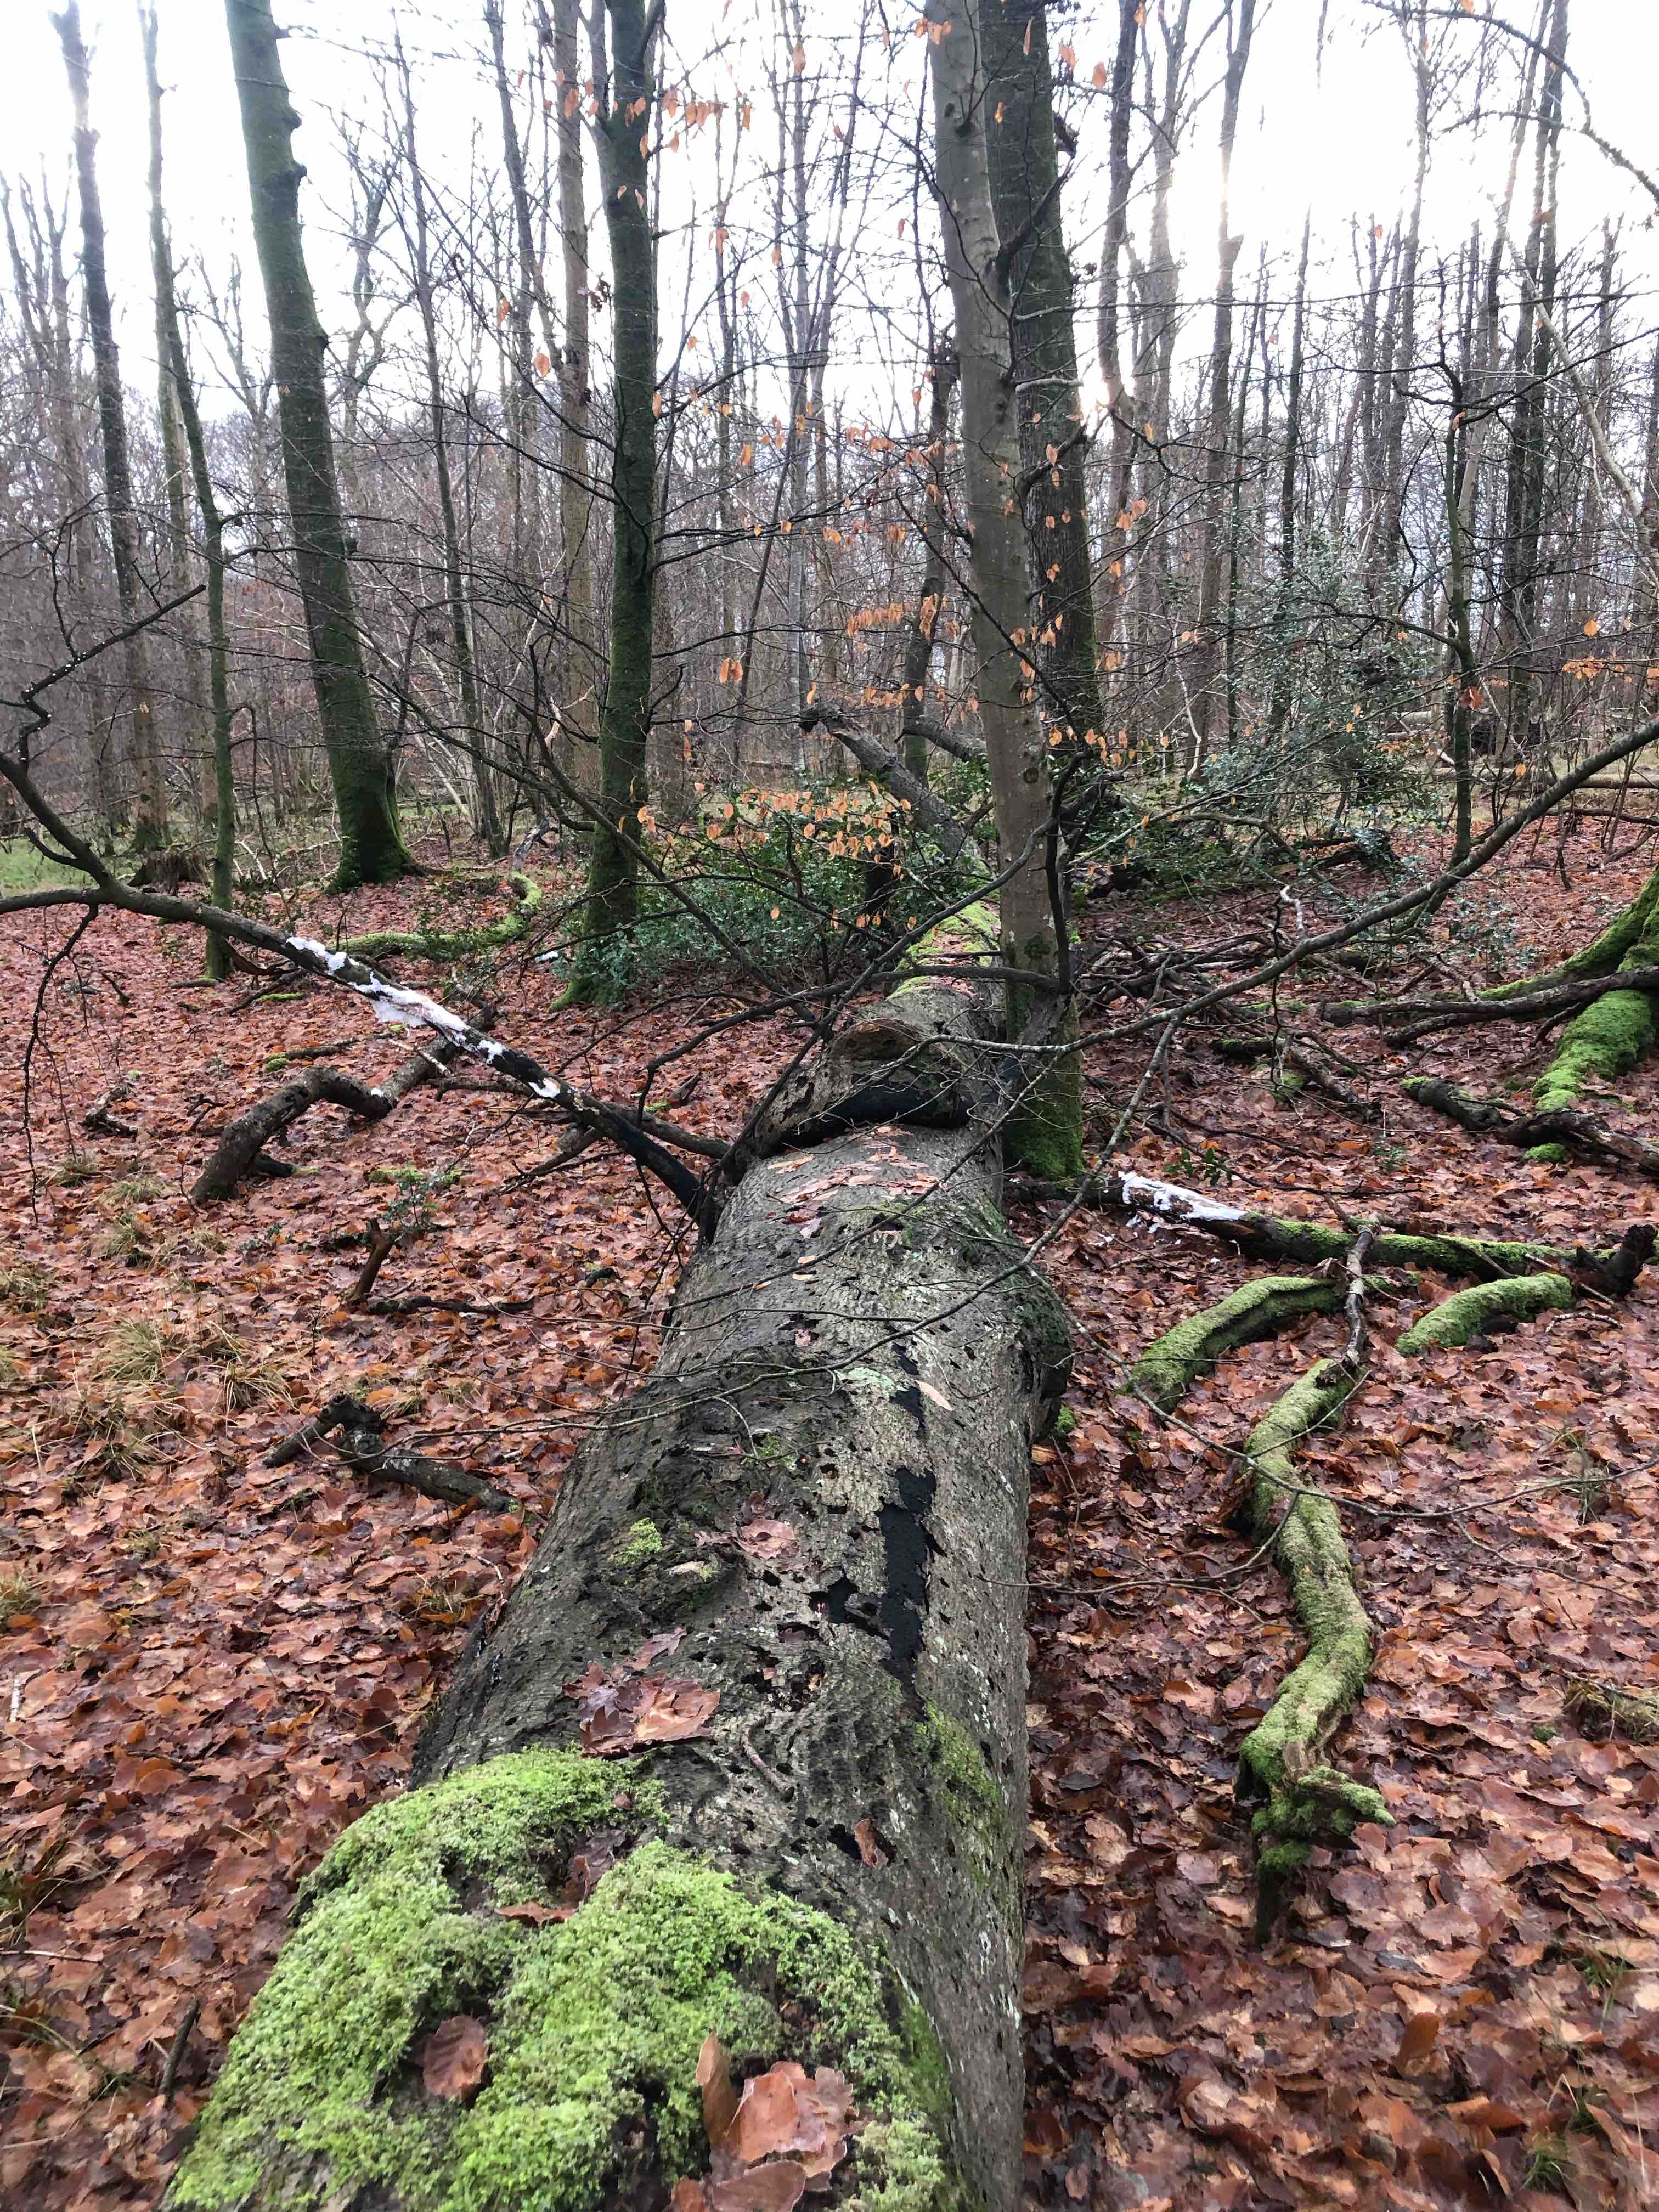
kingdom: Fungi
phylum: Basidiomycota
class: Agaricomycetes
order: Polyporales
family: Polyporaceae
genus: Ganoderma
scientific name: Ganoderma applanatum
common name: flad lakporesvamp
